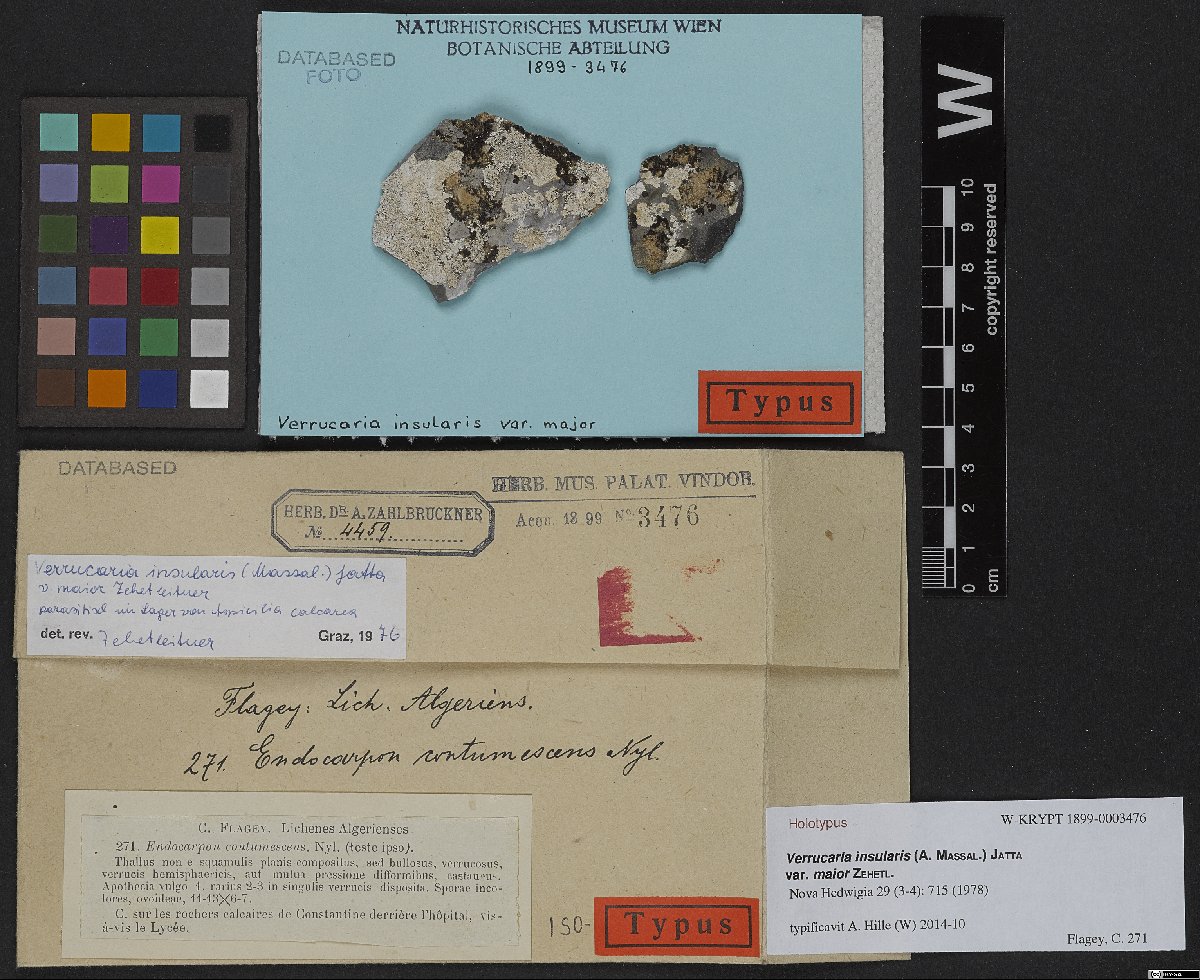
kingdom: Fungi
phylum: Ascomycota
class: Eurotiomycetes
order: Verrucariales
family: Verrucariaceae
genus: Heteroplacidium
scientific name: Heteroplacidium fusculum
